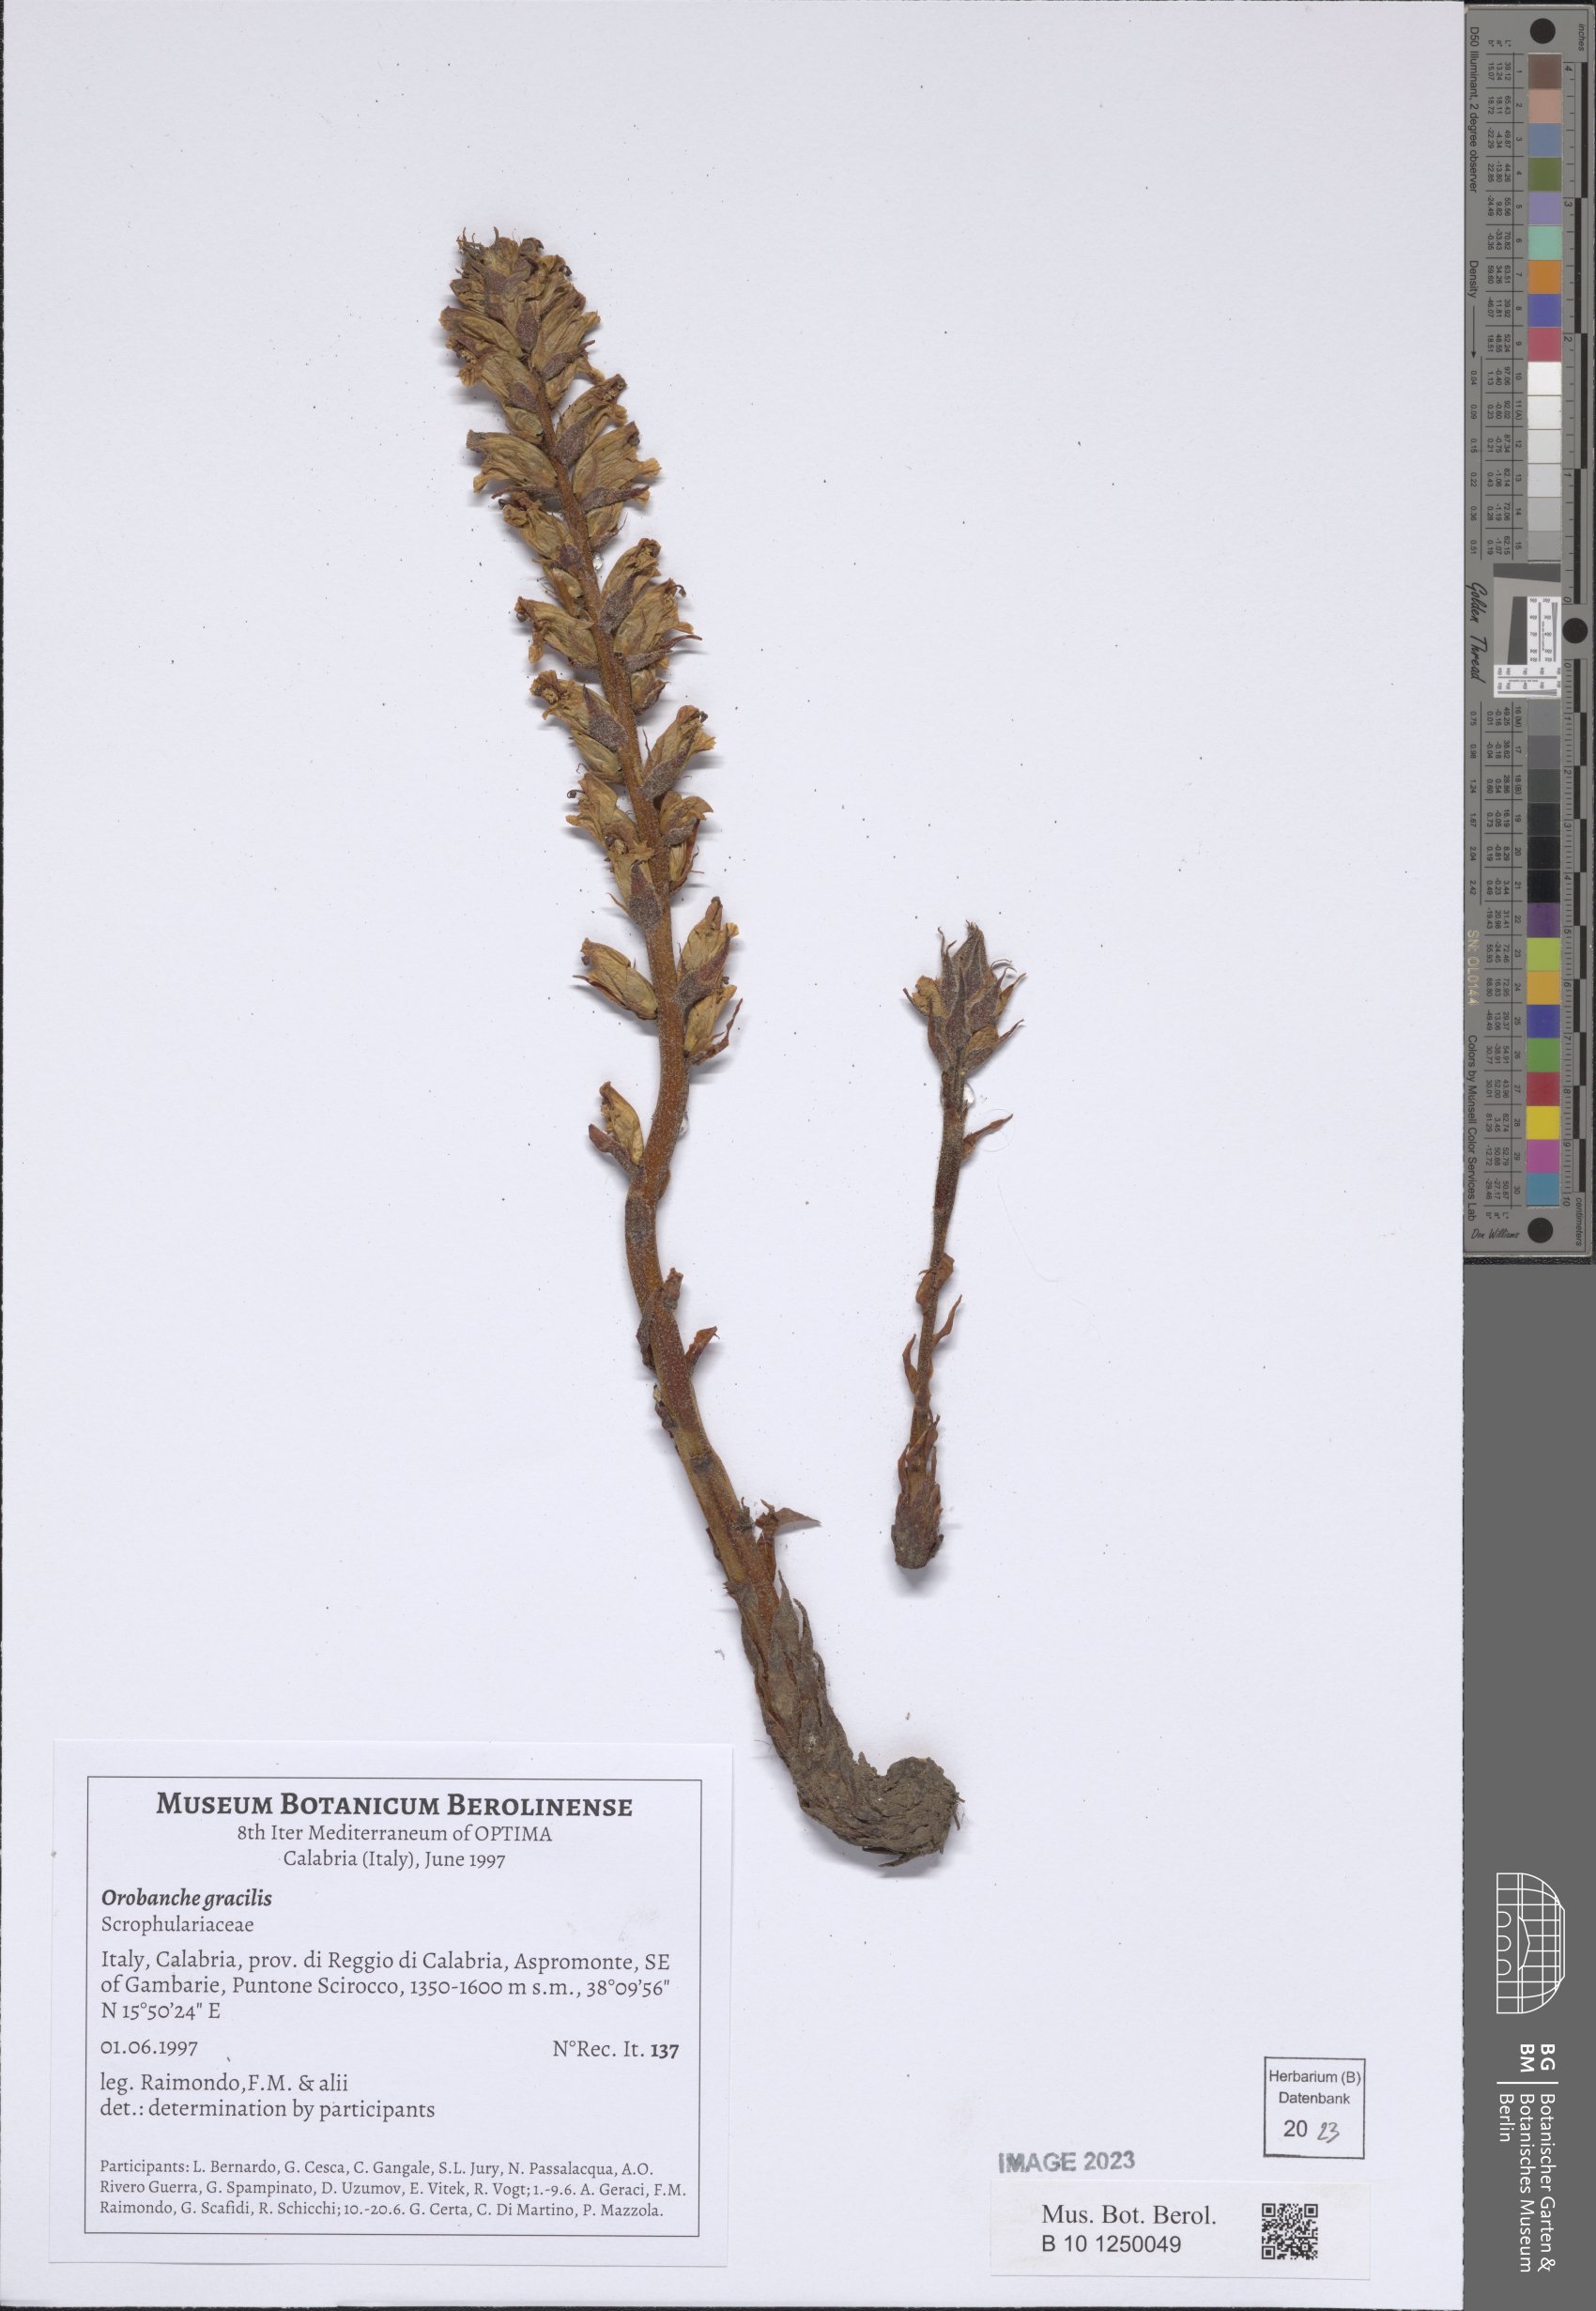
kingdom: Plantae
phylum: Tracheophyta
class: Magnoliopsida
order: Lamiales
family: Orobanchaceae
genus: Orobanche
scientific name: Orobanche gracilis
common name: Slender broomrape
